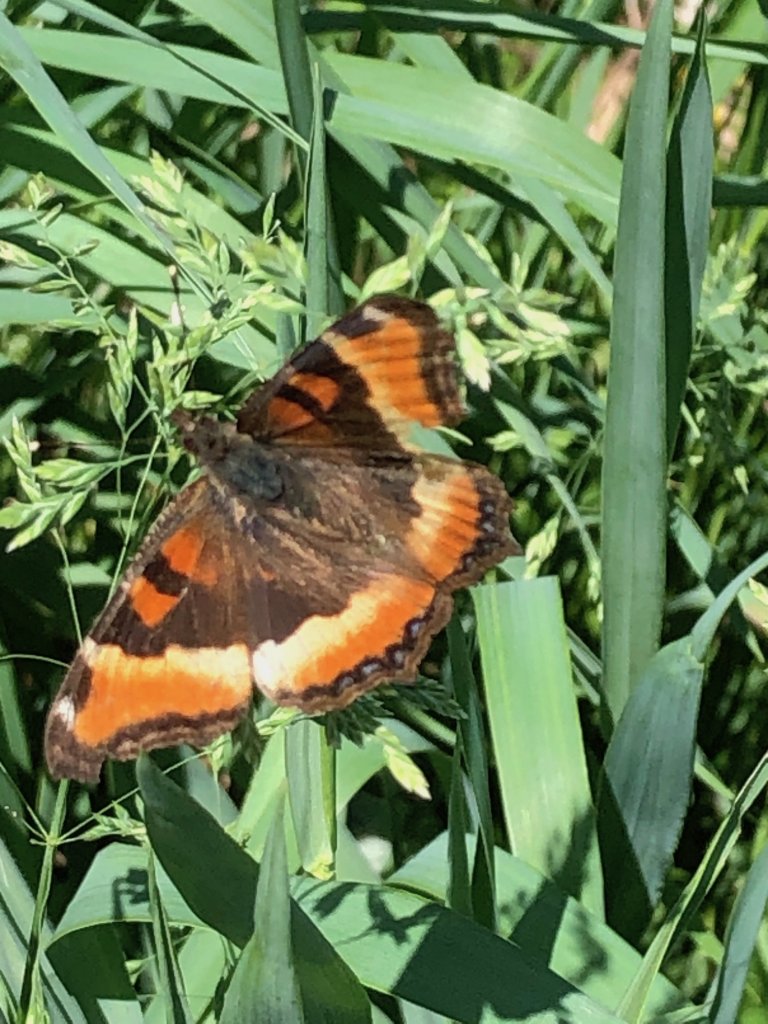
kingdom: Animalia
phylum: Arthropoda
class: Insecta
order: Lepidoptera
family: Nymphalidae
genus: Aglais
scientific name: Aglais milberti
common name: Milbert's Tortoiseshell
